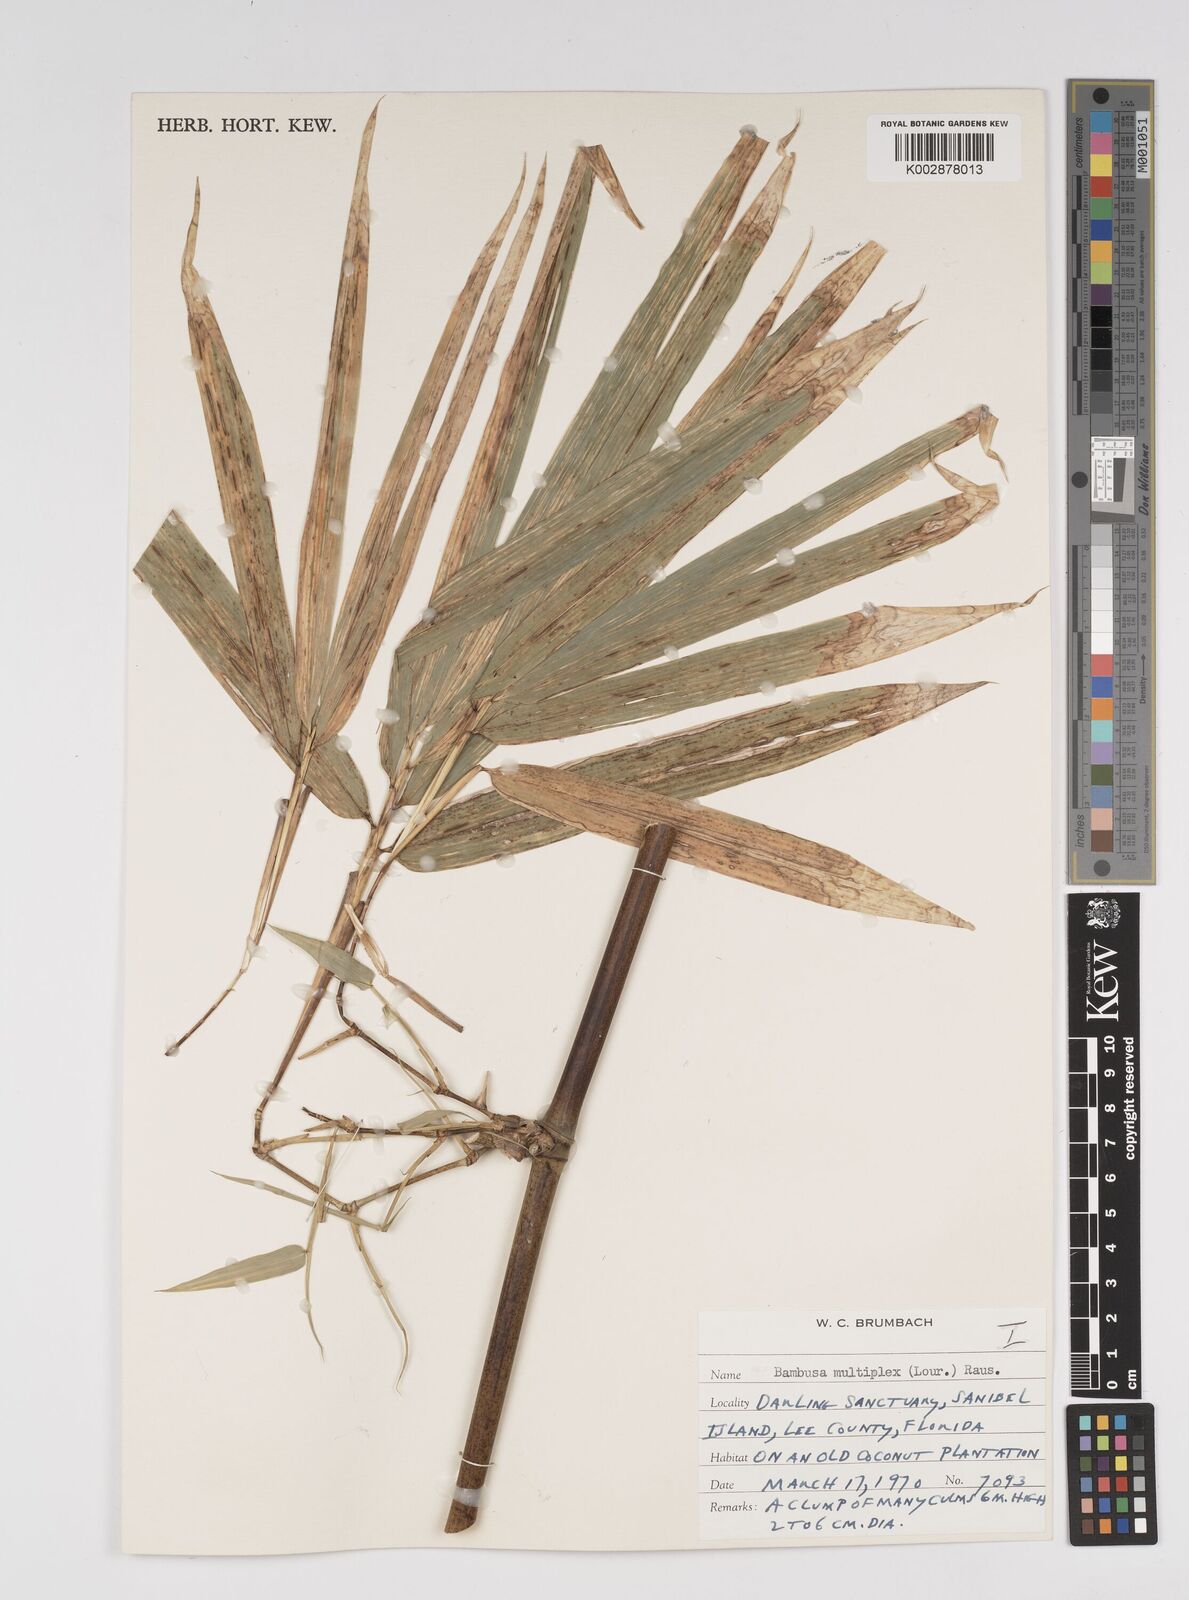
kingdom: Plantae
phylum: Tracheophyta
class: Liliopsida
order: Poales
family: Poaceae
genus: Bambusa
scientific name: Bambusa
